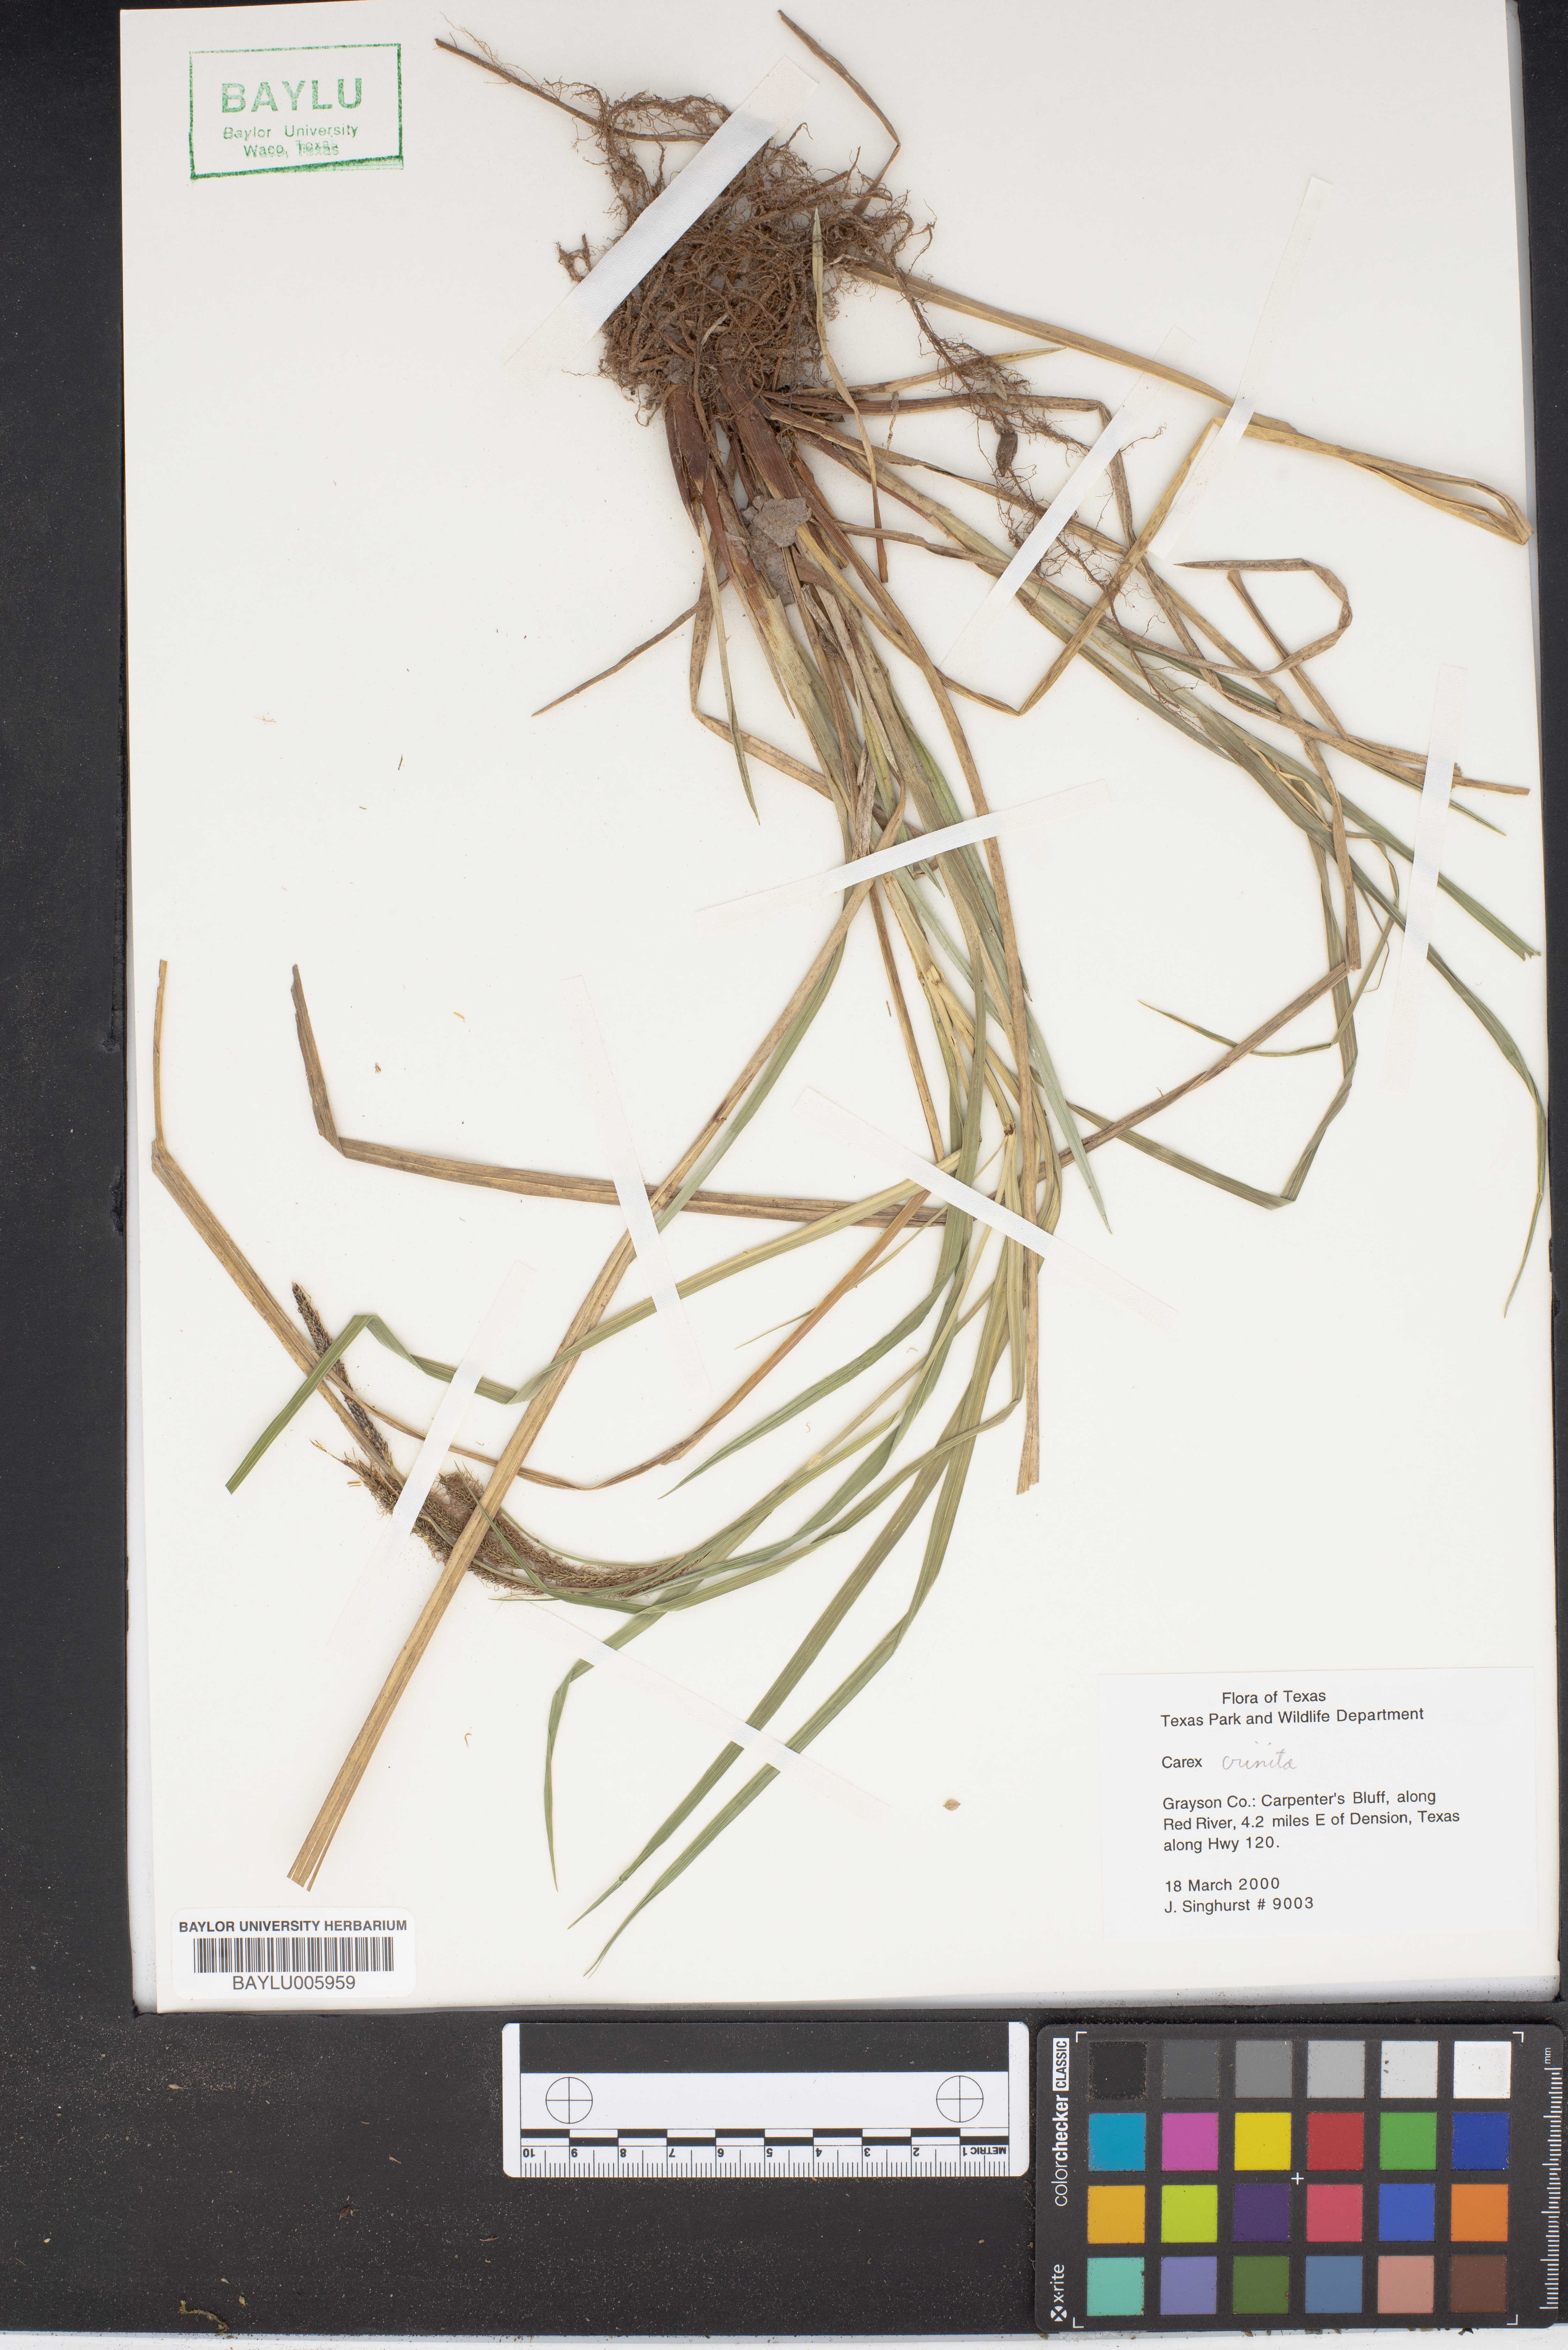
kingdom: Plantae
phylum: Tracheophyta
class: Liliopsida
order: Poales
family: Cyperaceae
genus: Carex
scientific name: Carex cruciata
